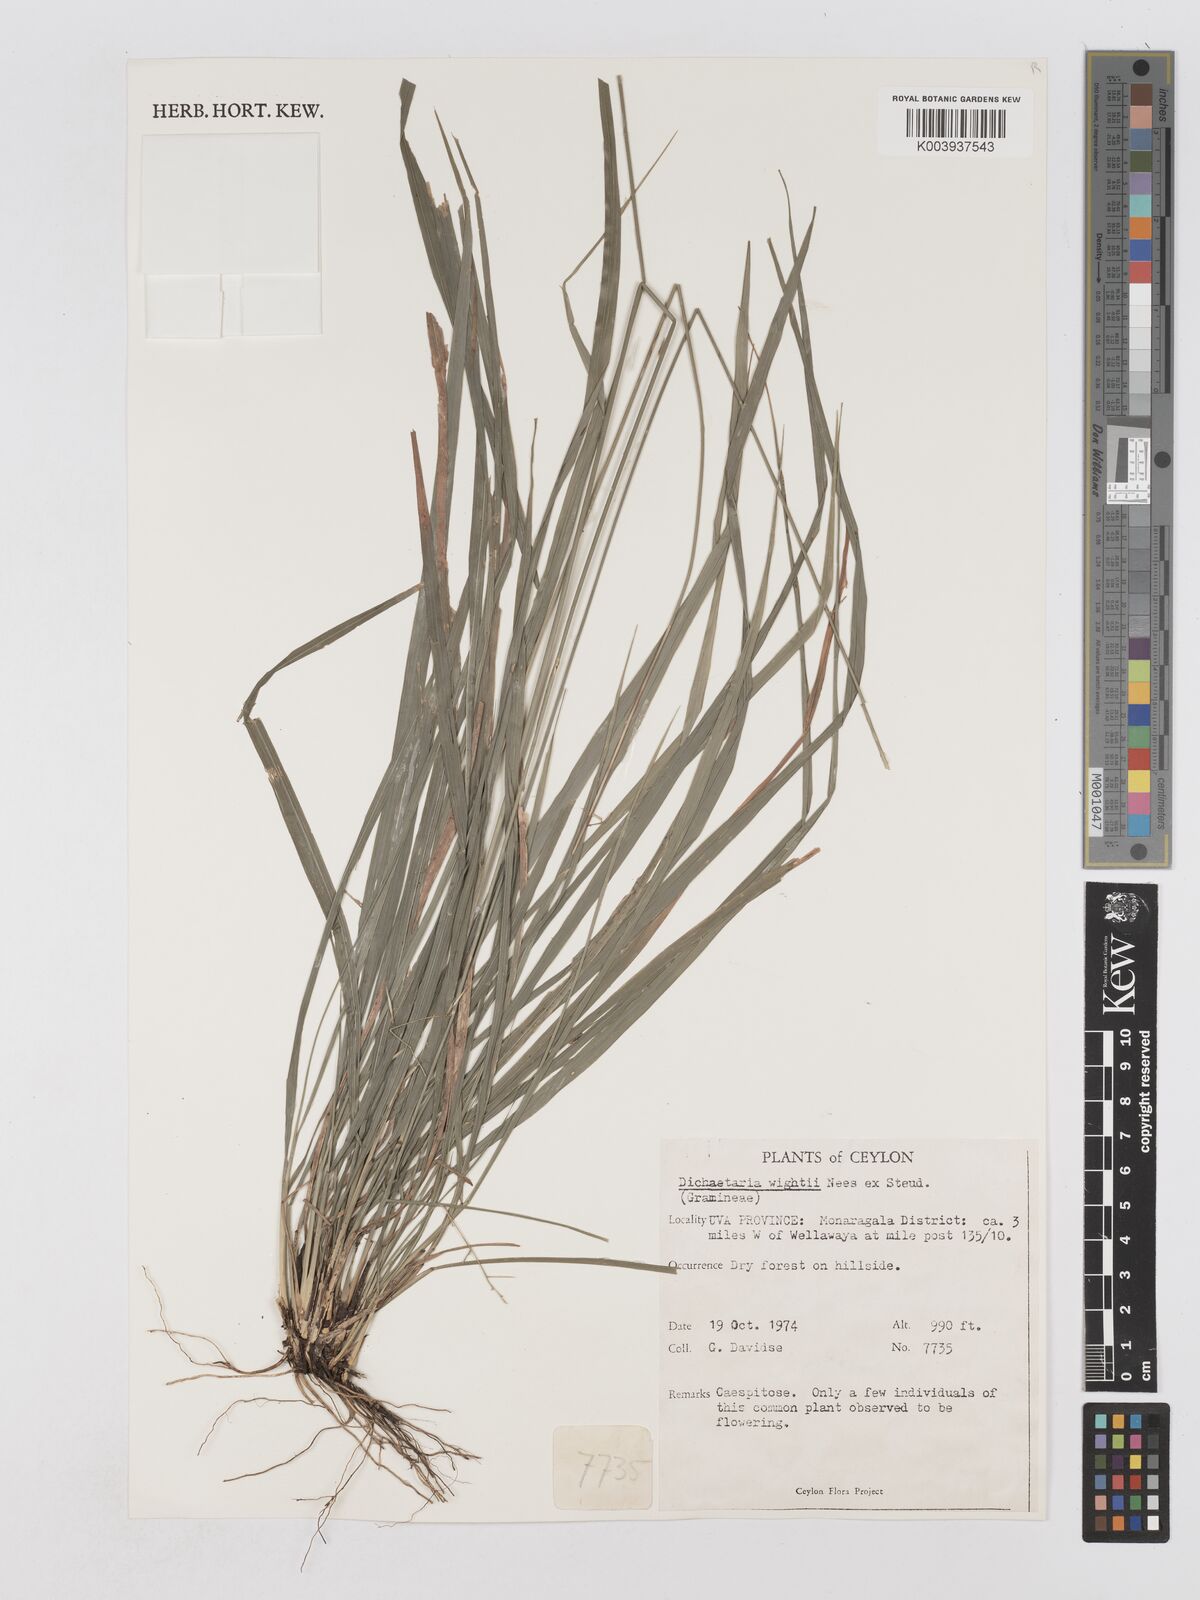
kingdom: Plantae
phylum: Tracheophyta
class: Liliopsida
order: Poales
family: Poaceae
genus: Dichaetaria
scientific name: Dichaetaria wightii
